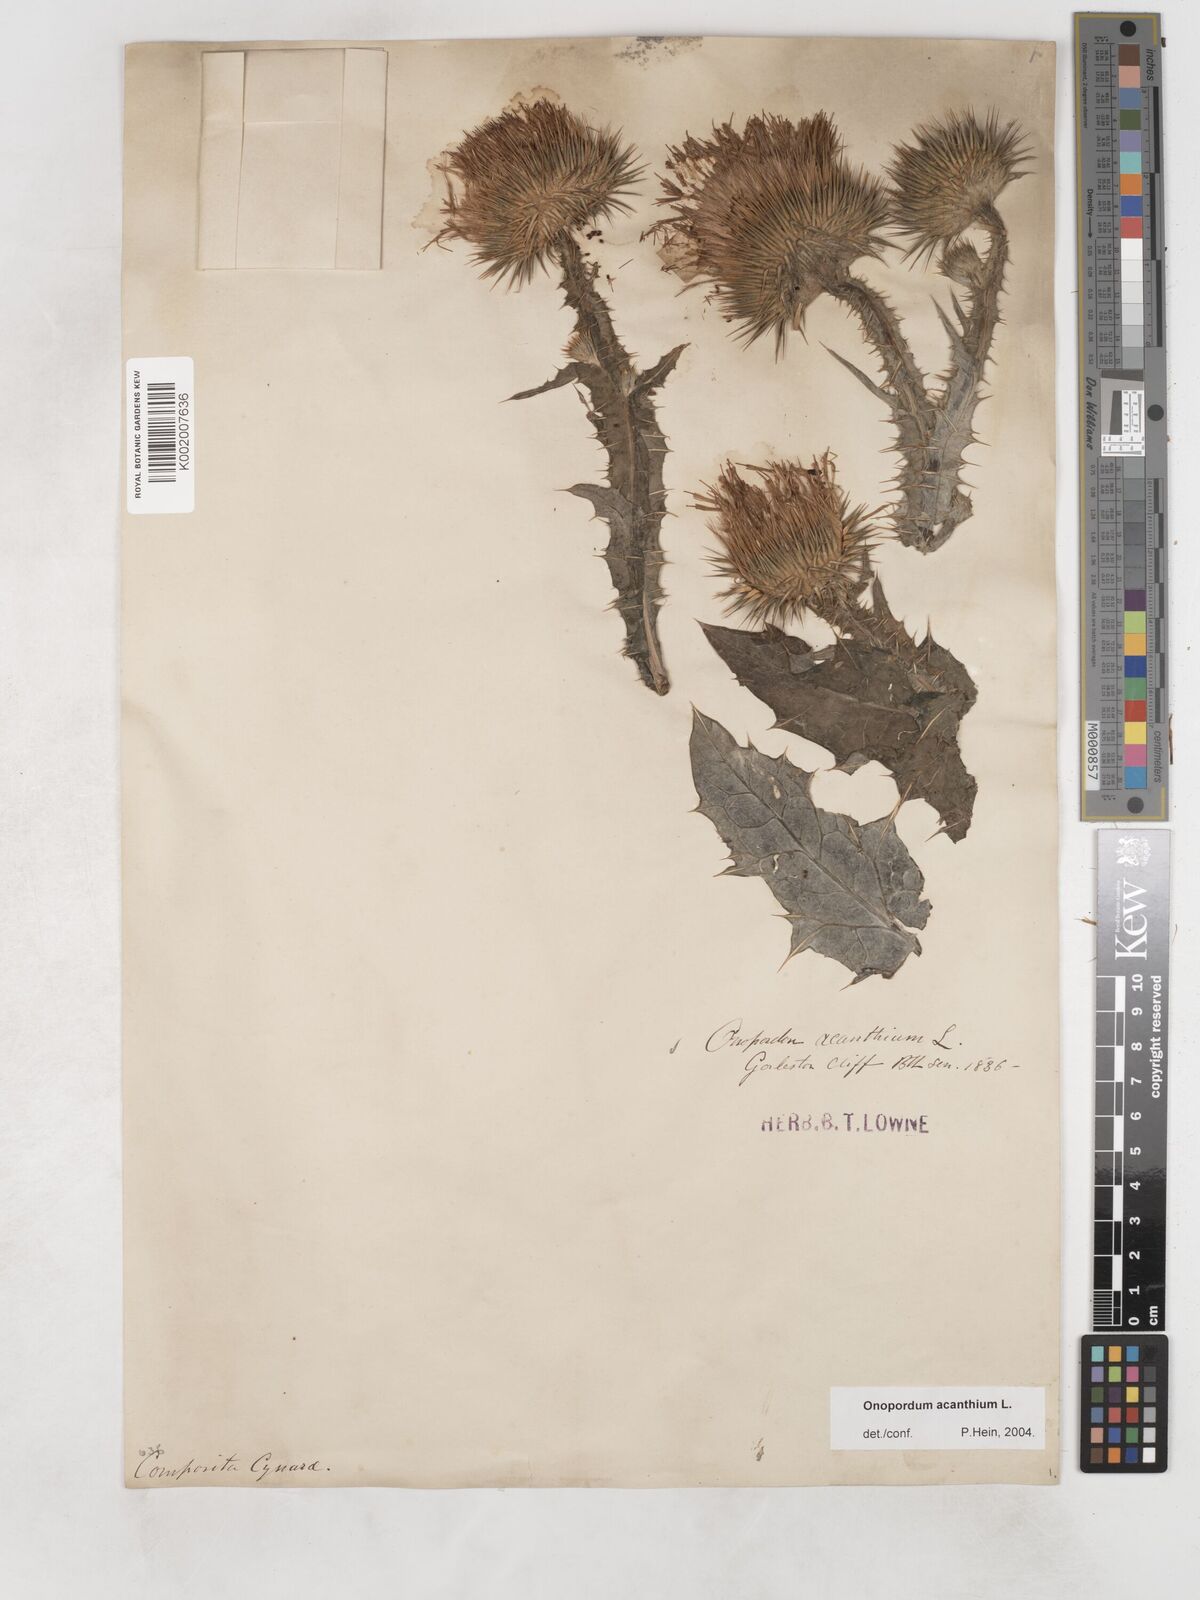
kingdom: Plantae
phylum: Tracheophyta
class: Magnoliopsida
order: Asterales
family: Asteraceae
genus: Onopordum
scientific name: Onopordum acanthium
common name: Scotch thistle
